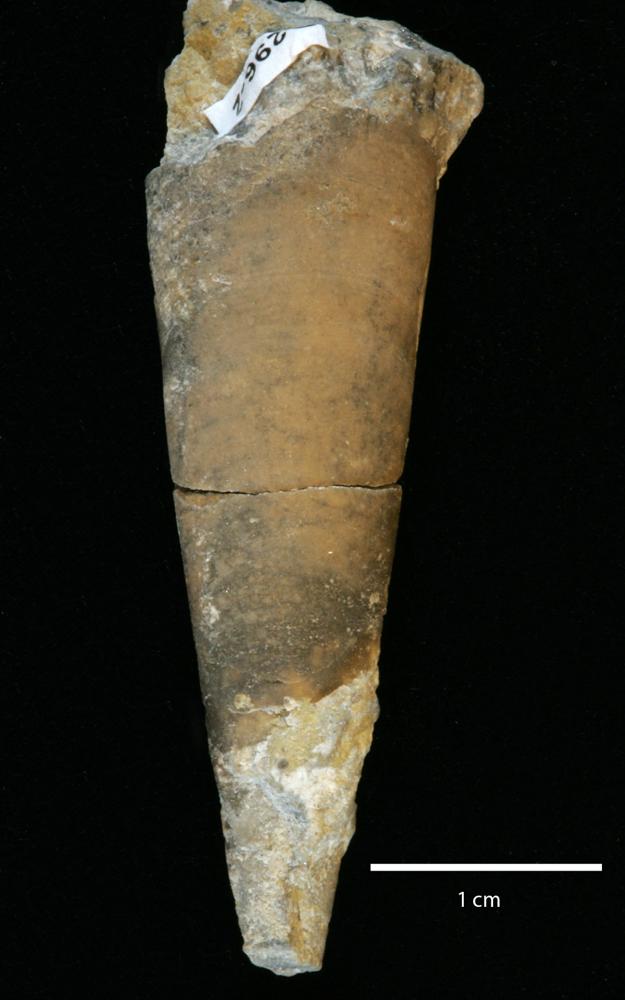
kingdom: Animalia
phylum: Annelida
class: Polychaeta
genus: Hyolithes
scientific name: Hyolithes
